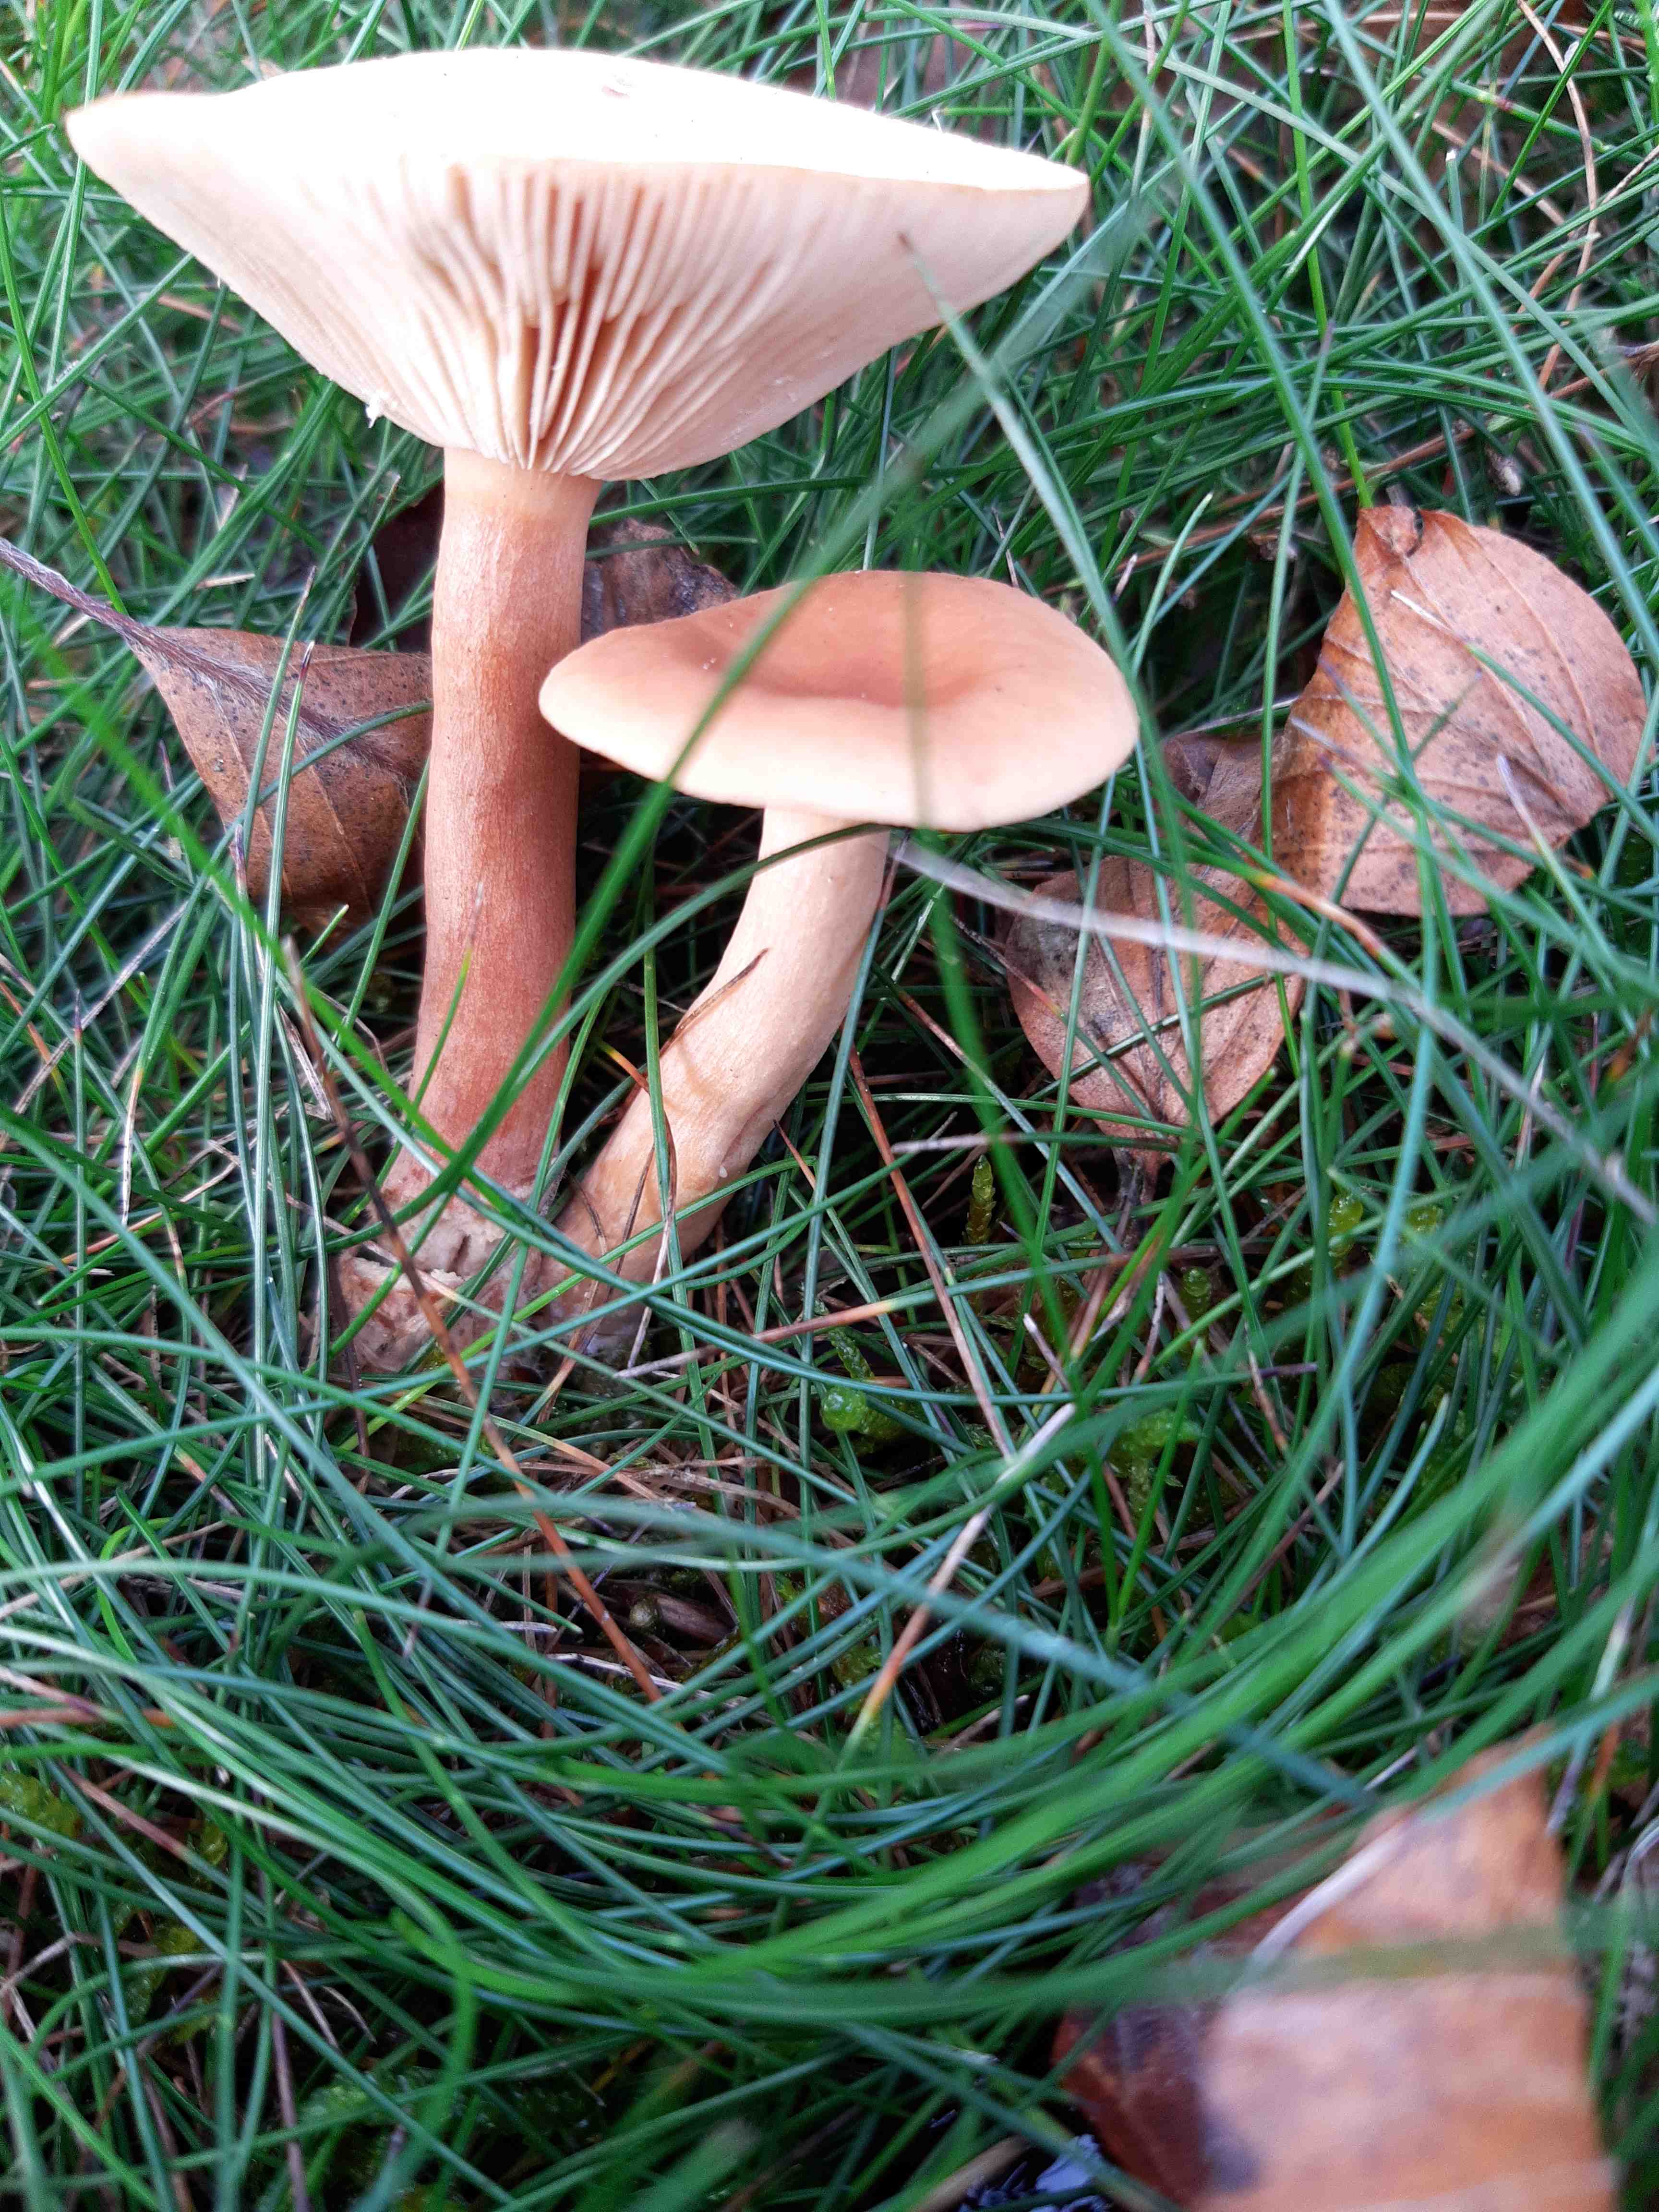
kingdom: Fungi
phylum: Basidiomycota
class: Agaricomycetes
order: Russulales
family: Russulaceae
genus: Lactarius
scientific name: Lactarius tabidus
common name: rynket mælkehat
